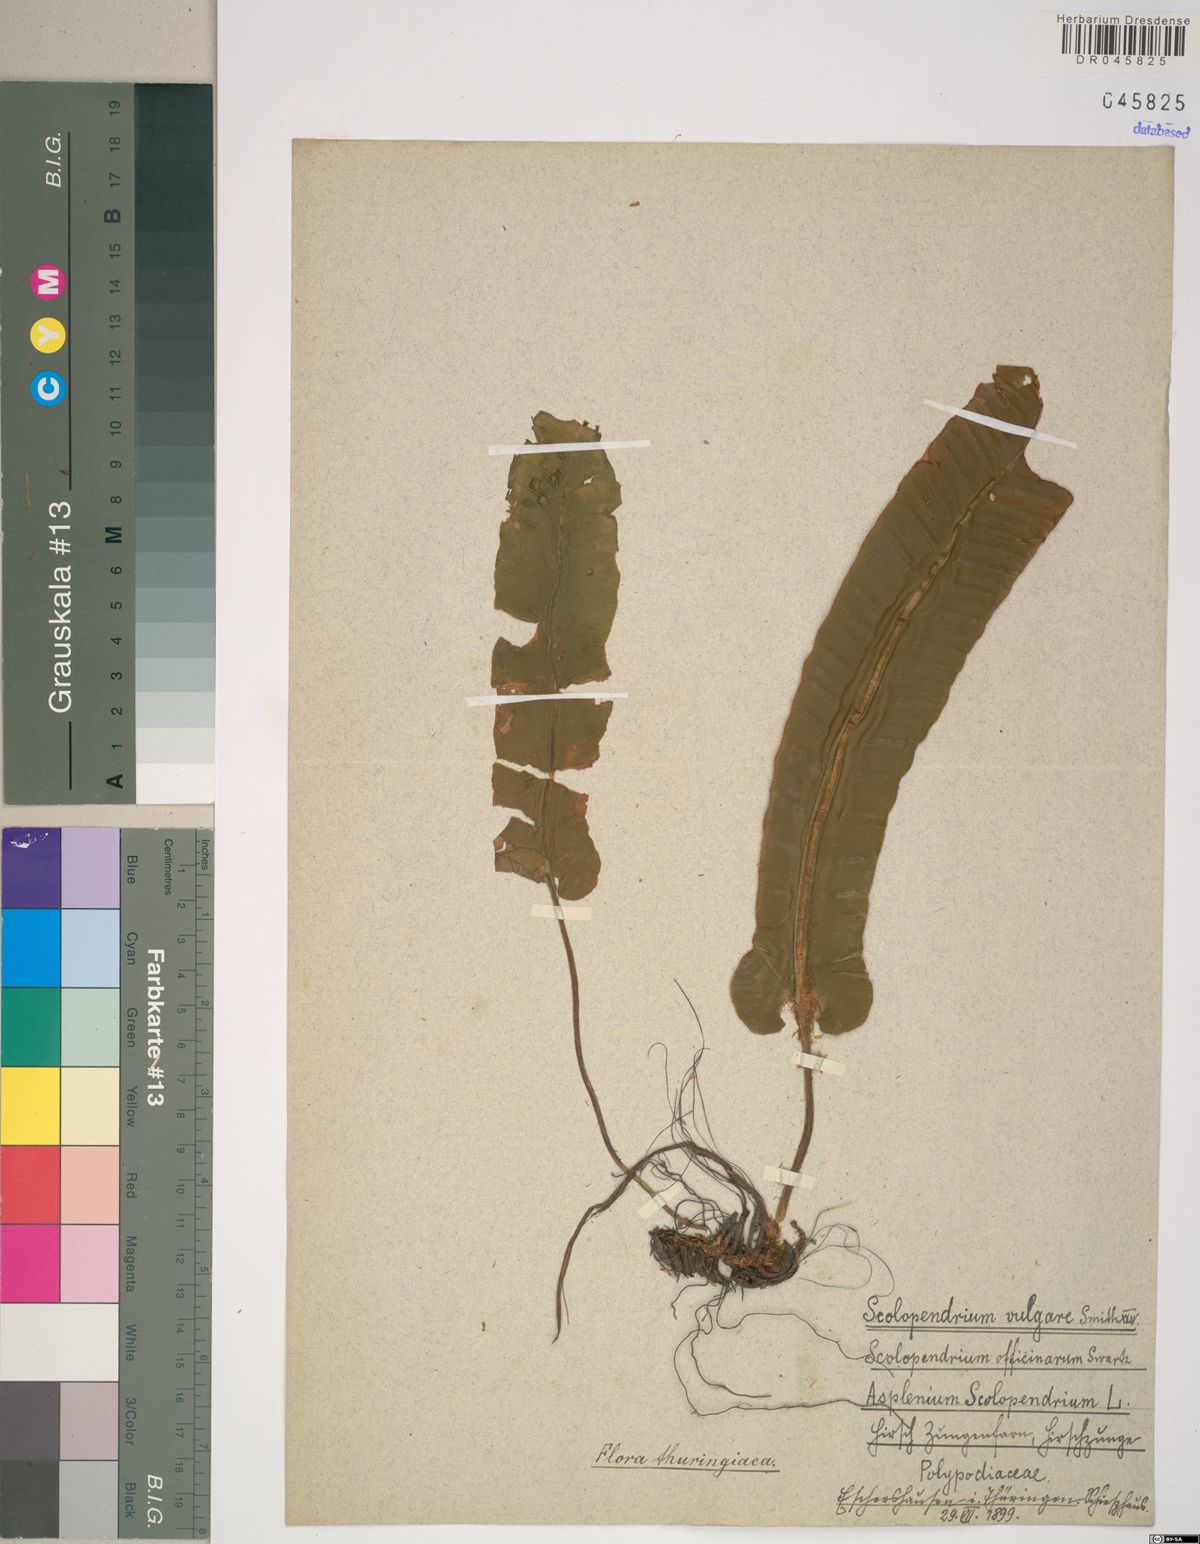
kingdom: Plantae
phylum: Tracheophyta
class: Polypodiopsida
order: Polypodiales
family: Aspleniaceae
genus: Asplenium
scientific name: Asplenium scolopendrium
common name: Hart's-tongue fern
